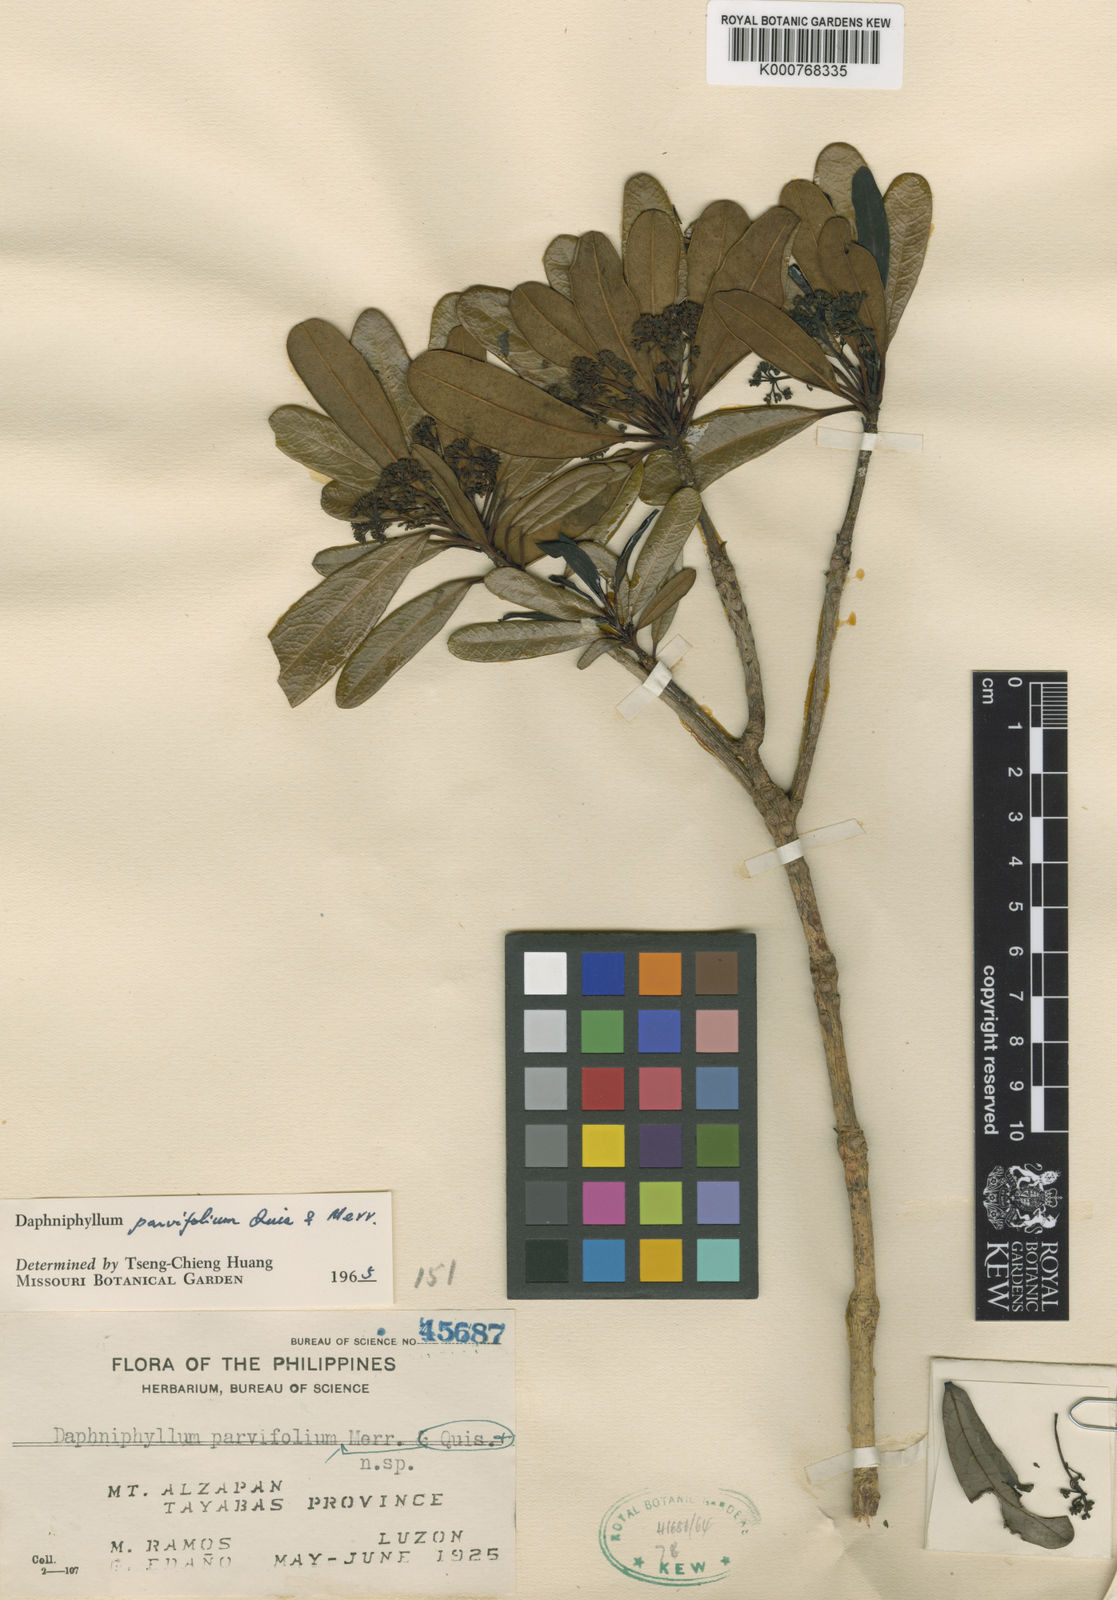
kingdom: Plantae
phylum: Tracheophyta
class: Magnoliopsida
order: Saxifragales
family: Daphniphyllaceae
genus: Daphniphyllum
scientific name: Daphniphyllum parvifolium
